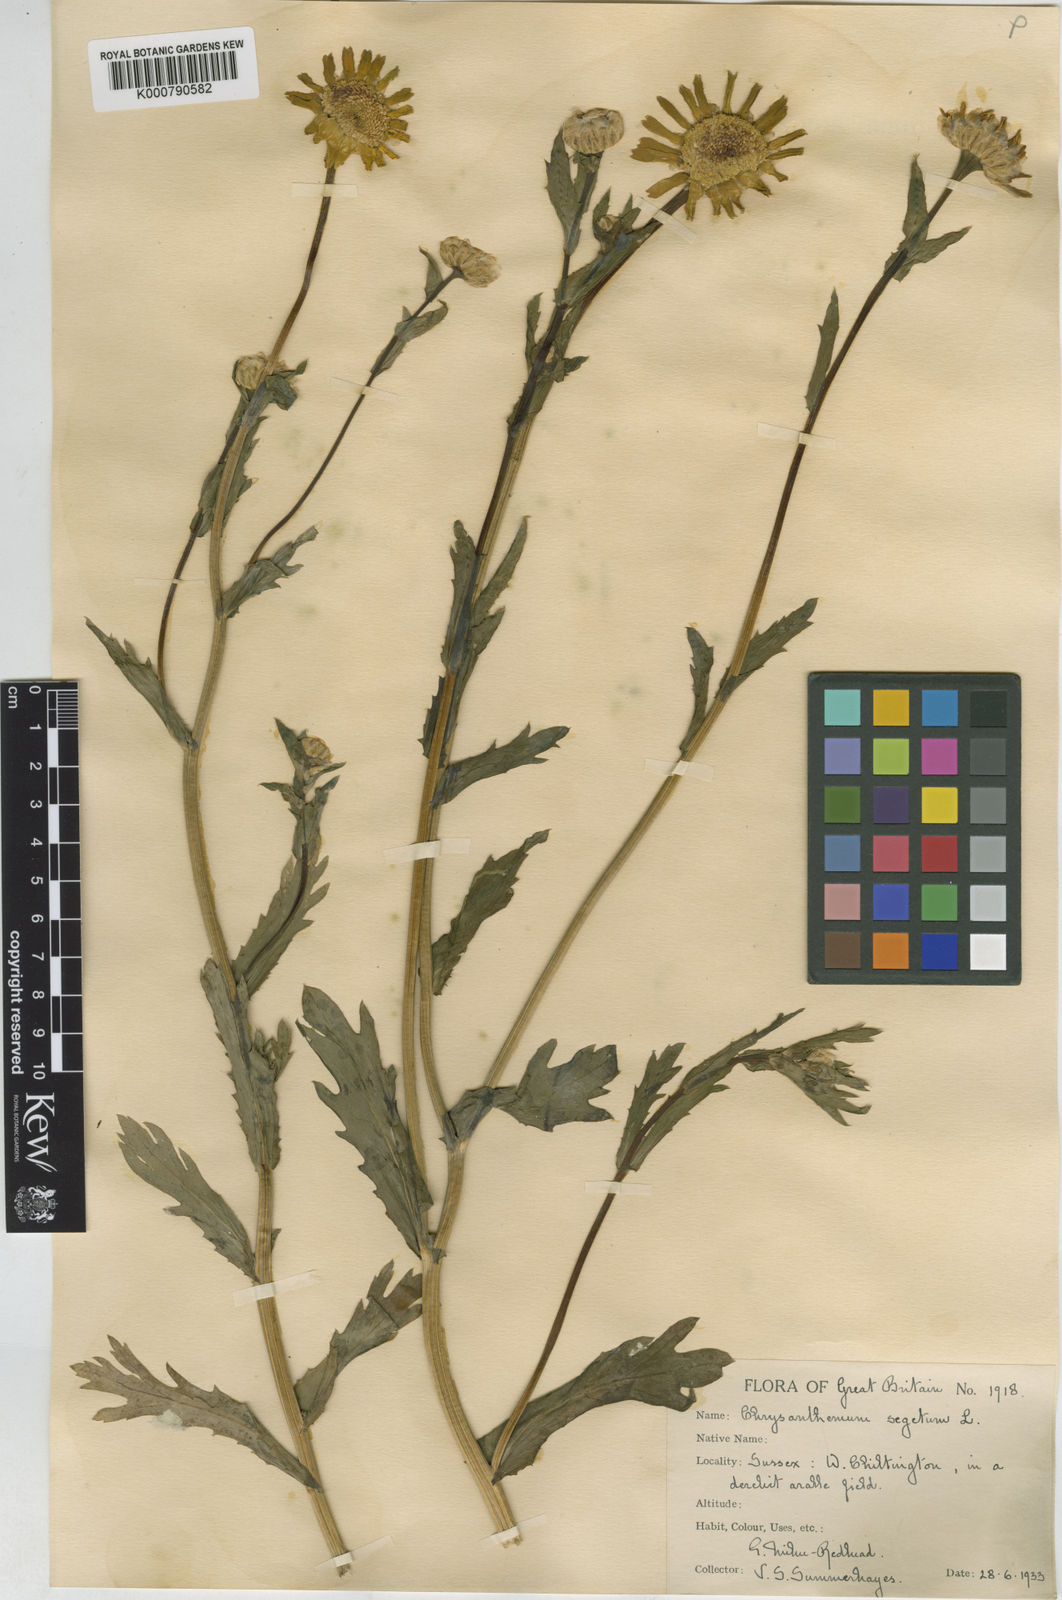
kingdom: Plantae
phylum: Tracheophyta
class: Magnoliopsida
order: Asterales
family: Asteraceae
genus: Glebionis
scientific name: Glebionis
